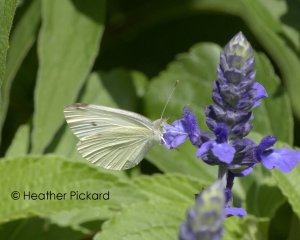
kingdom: Animalia
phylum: Arthropoda
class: Insecta
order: Lepidoptera
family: Pieridae
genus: Pieris
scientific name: Pieris rapae
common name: Cabbage White
